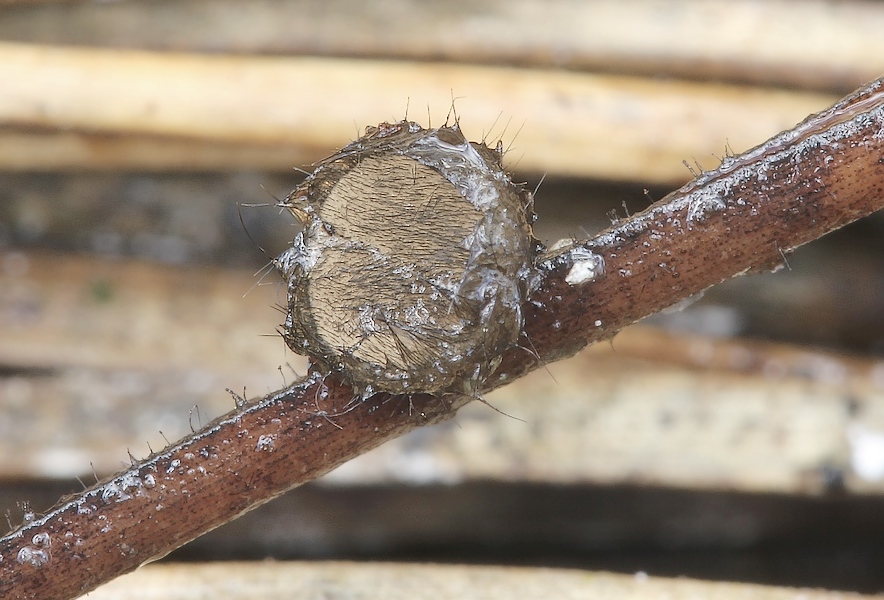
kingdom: Fungi
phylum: Ascomycota
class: Pezizomycetes
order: Pezizales
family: Chorioactidaceae
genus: Desmazierella
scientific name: Desmazierella acicola
